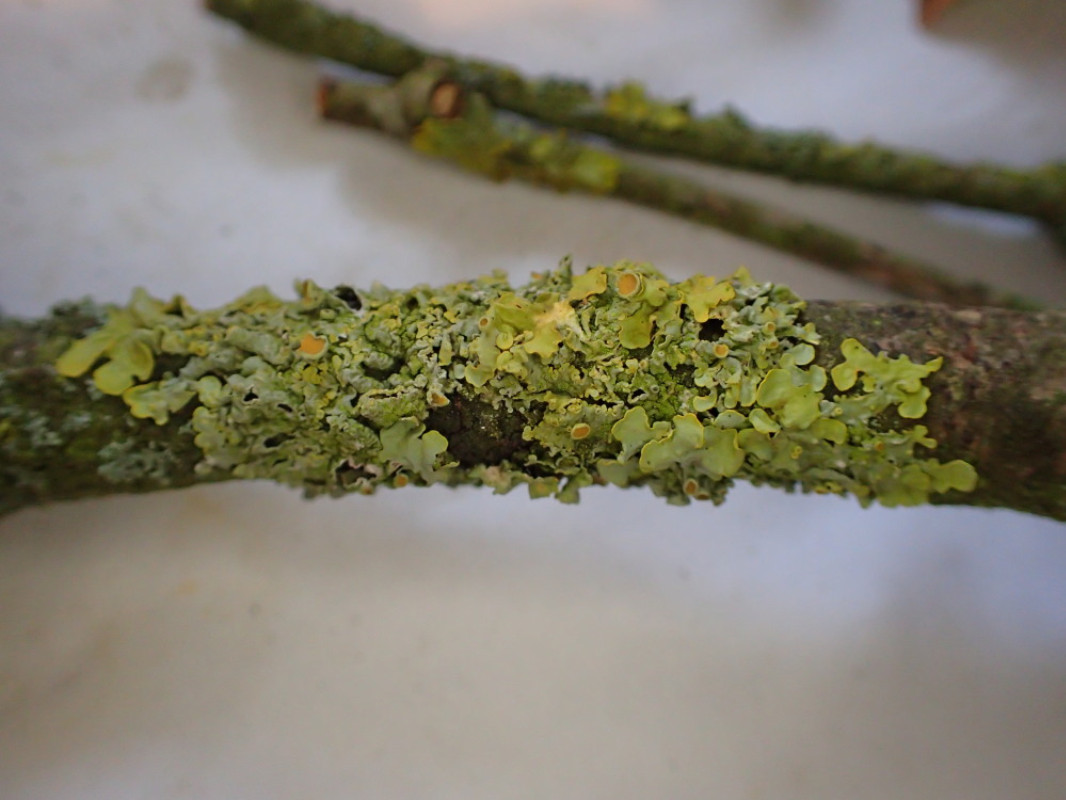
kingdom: Fungi
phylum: Ascomycota
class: Lecanoromycetes
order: Teloschistales
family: Teloschistaceae
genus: Xanthoria
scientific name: Xanthoria parietina
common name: almindelig væggelav
